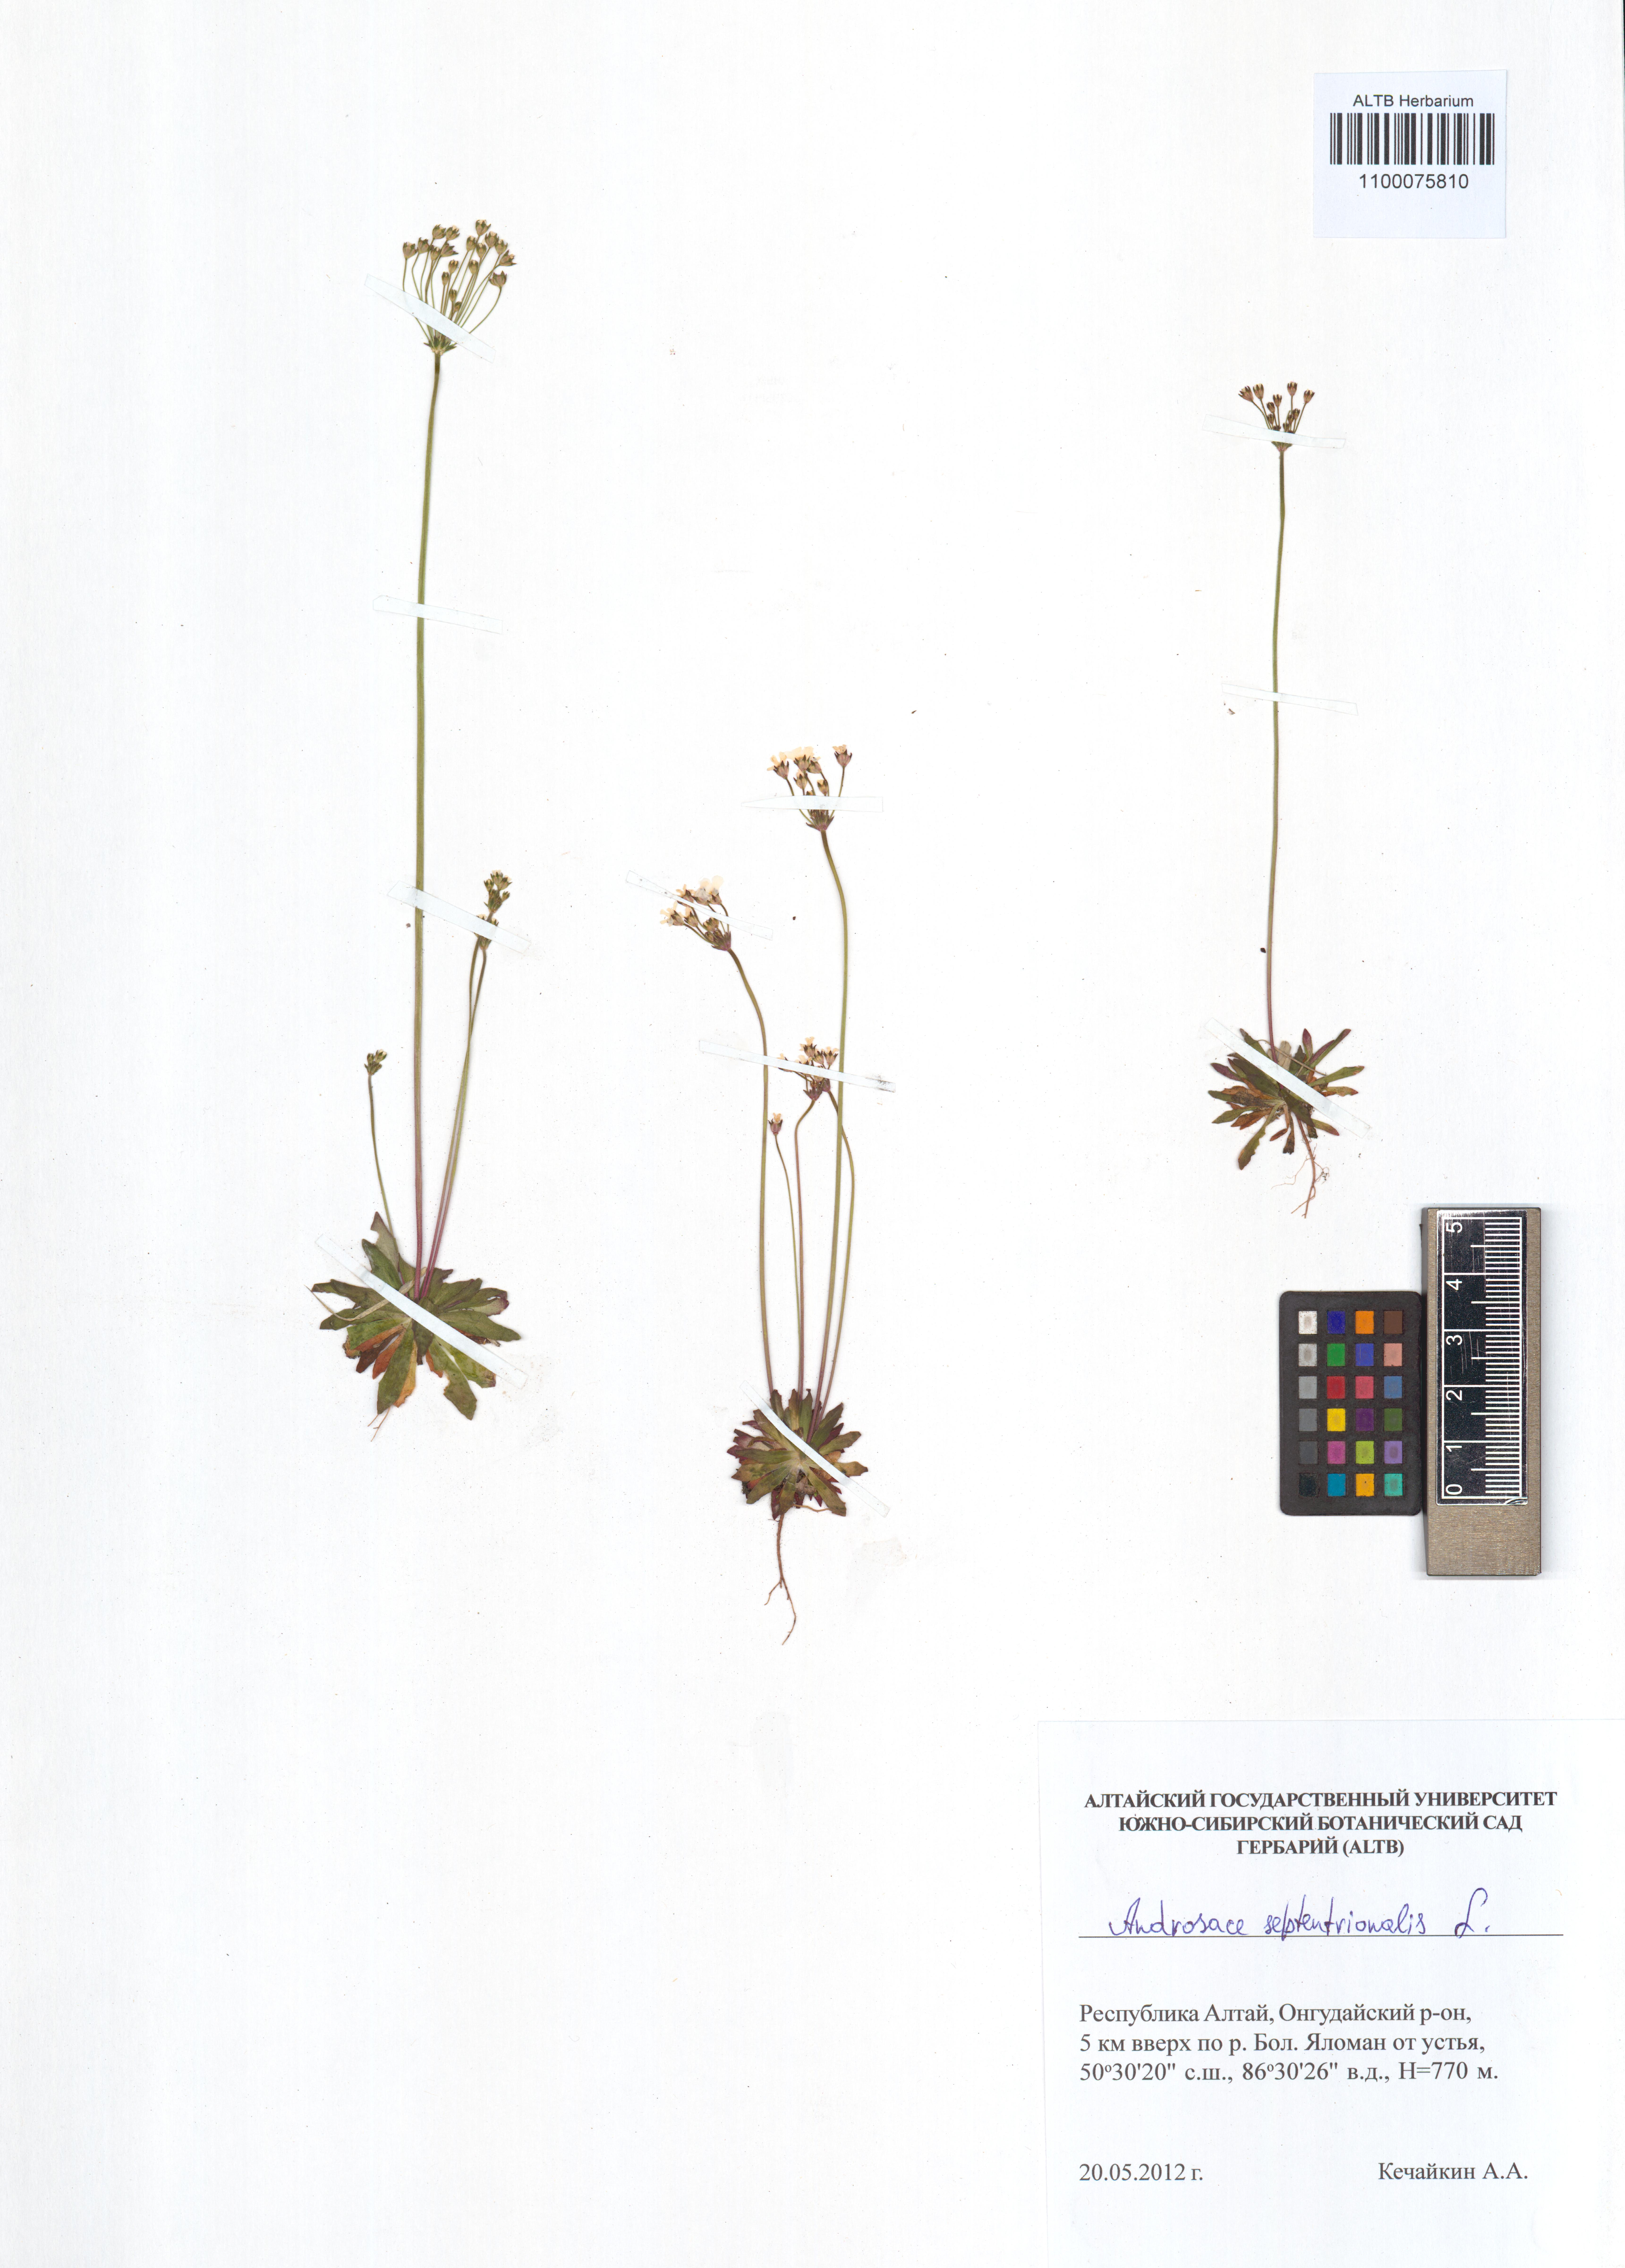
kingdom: Plantae
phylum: Tracheophyta
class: Magnoliopsida
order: Ericales
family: Primulaceae
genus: Androsace
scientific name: Androsace septentrionalis
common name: Hairy northern fairy-candelabra
